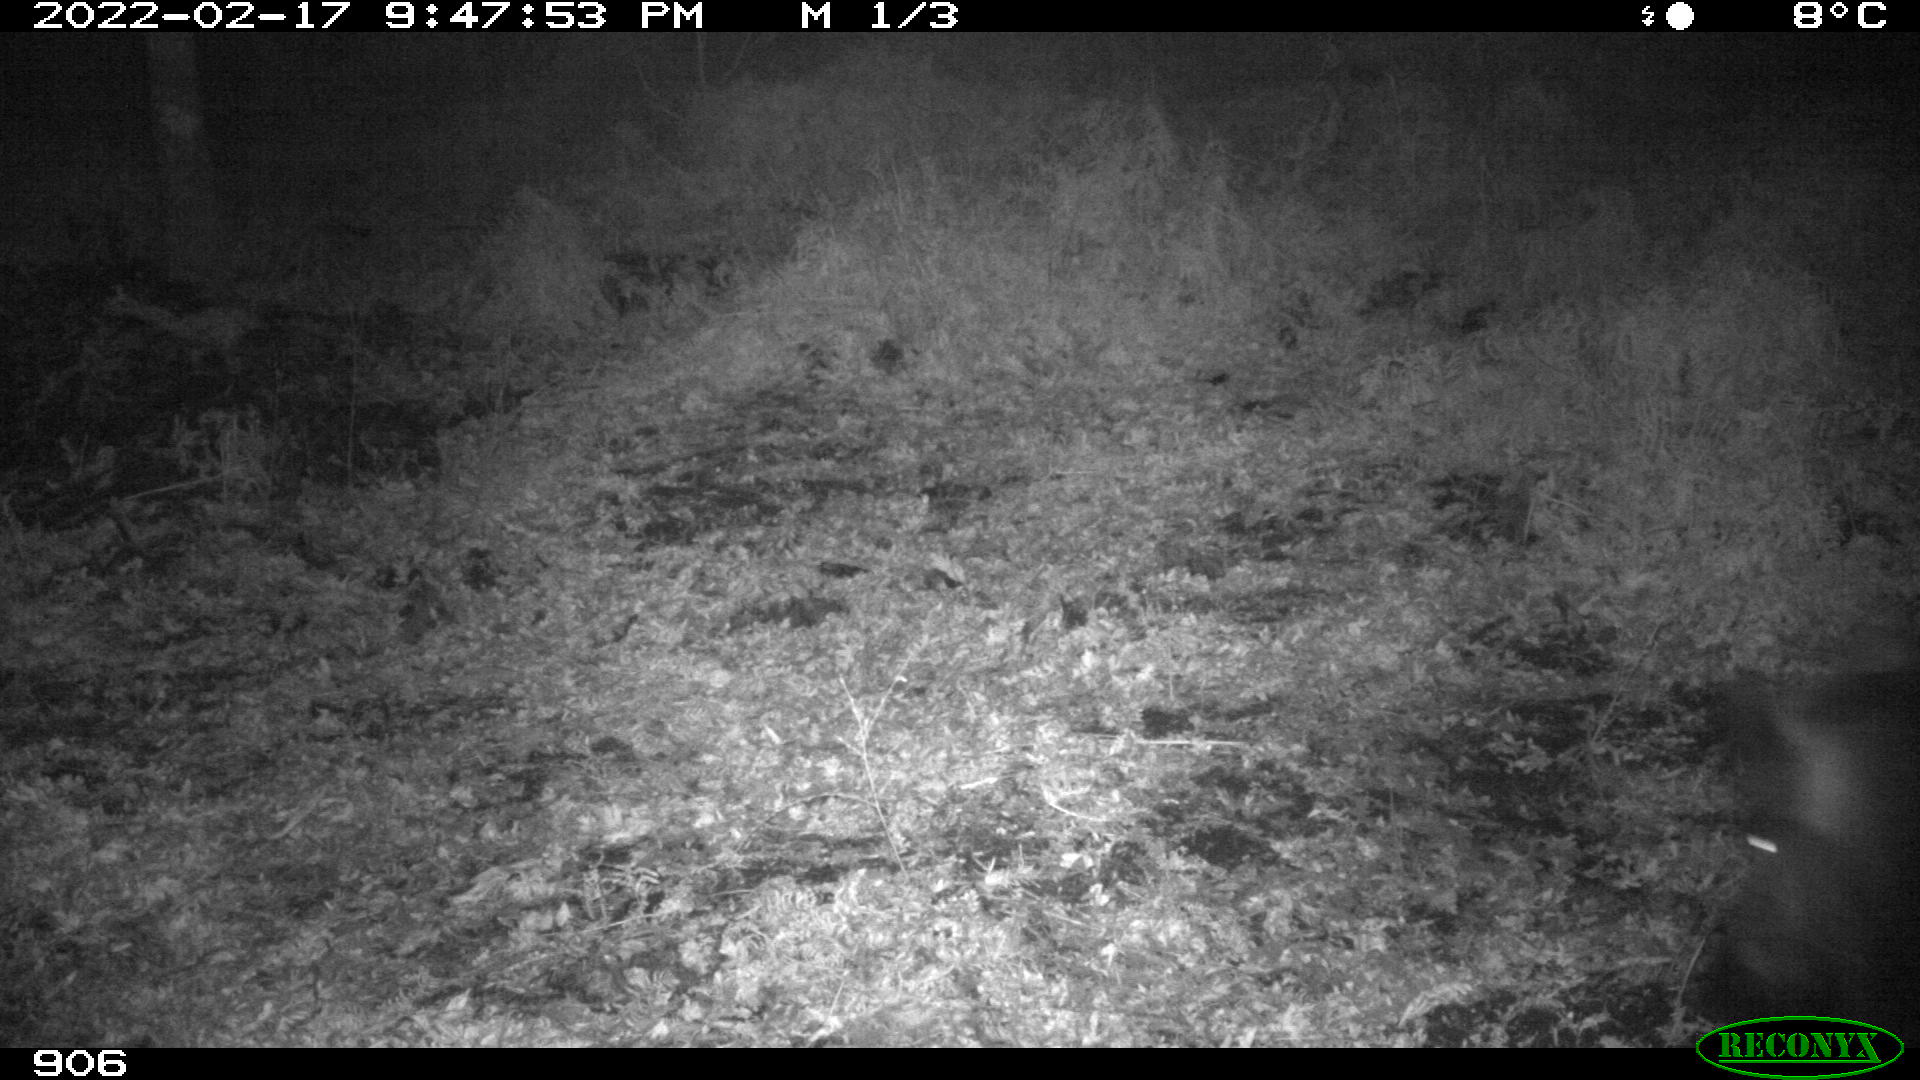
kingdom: Animalia
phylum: Chordata
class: Mammalia
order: Artiodactyla
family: Suidae
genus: Sus
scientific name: Sus scrofa
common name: Wild boar
